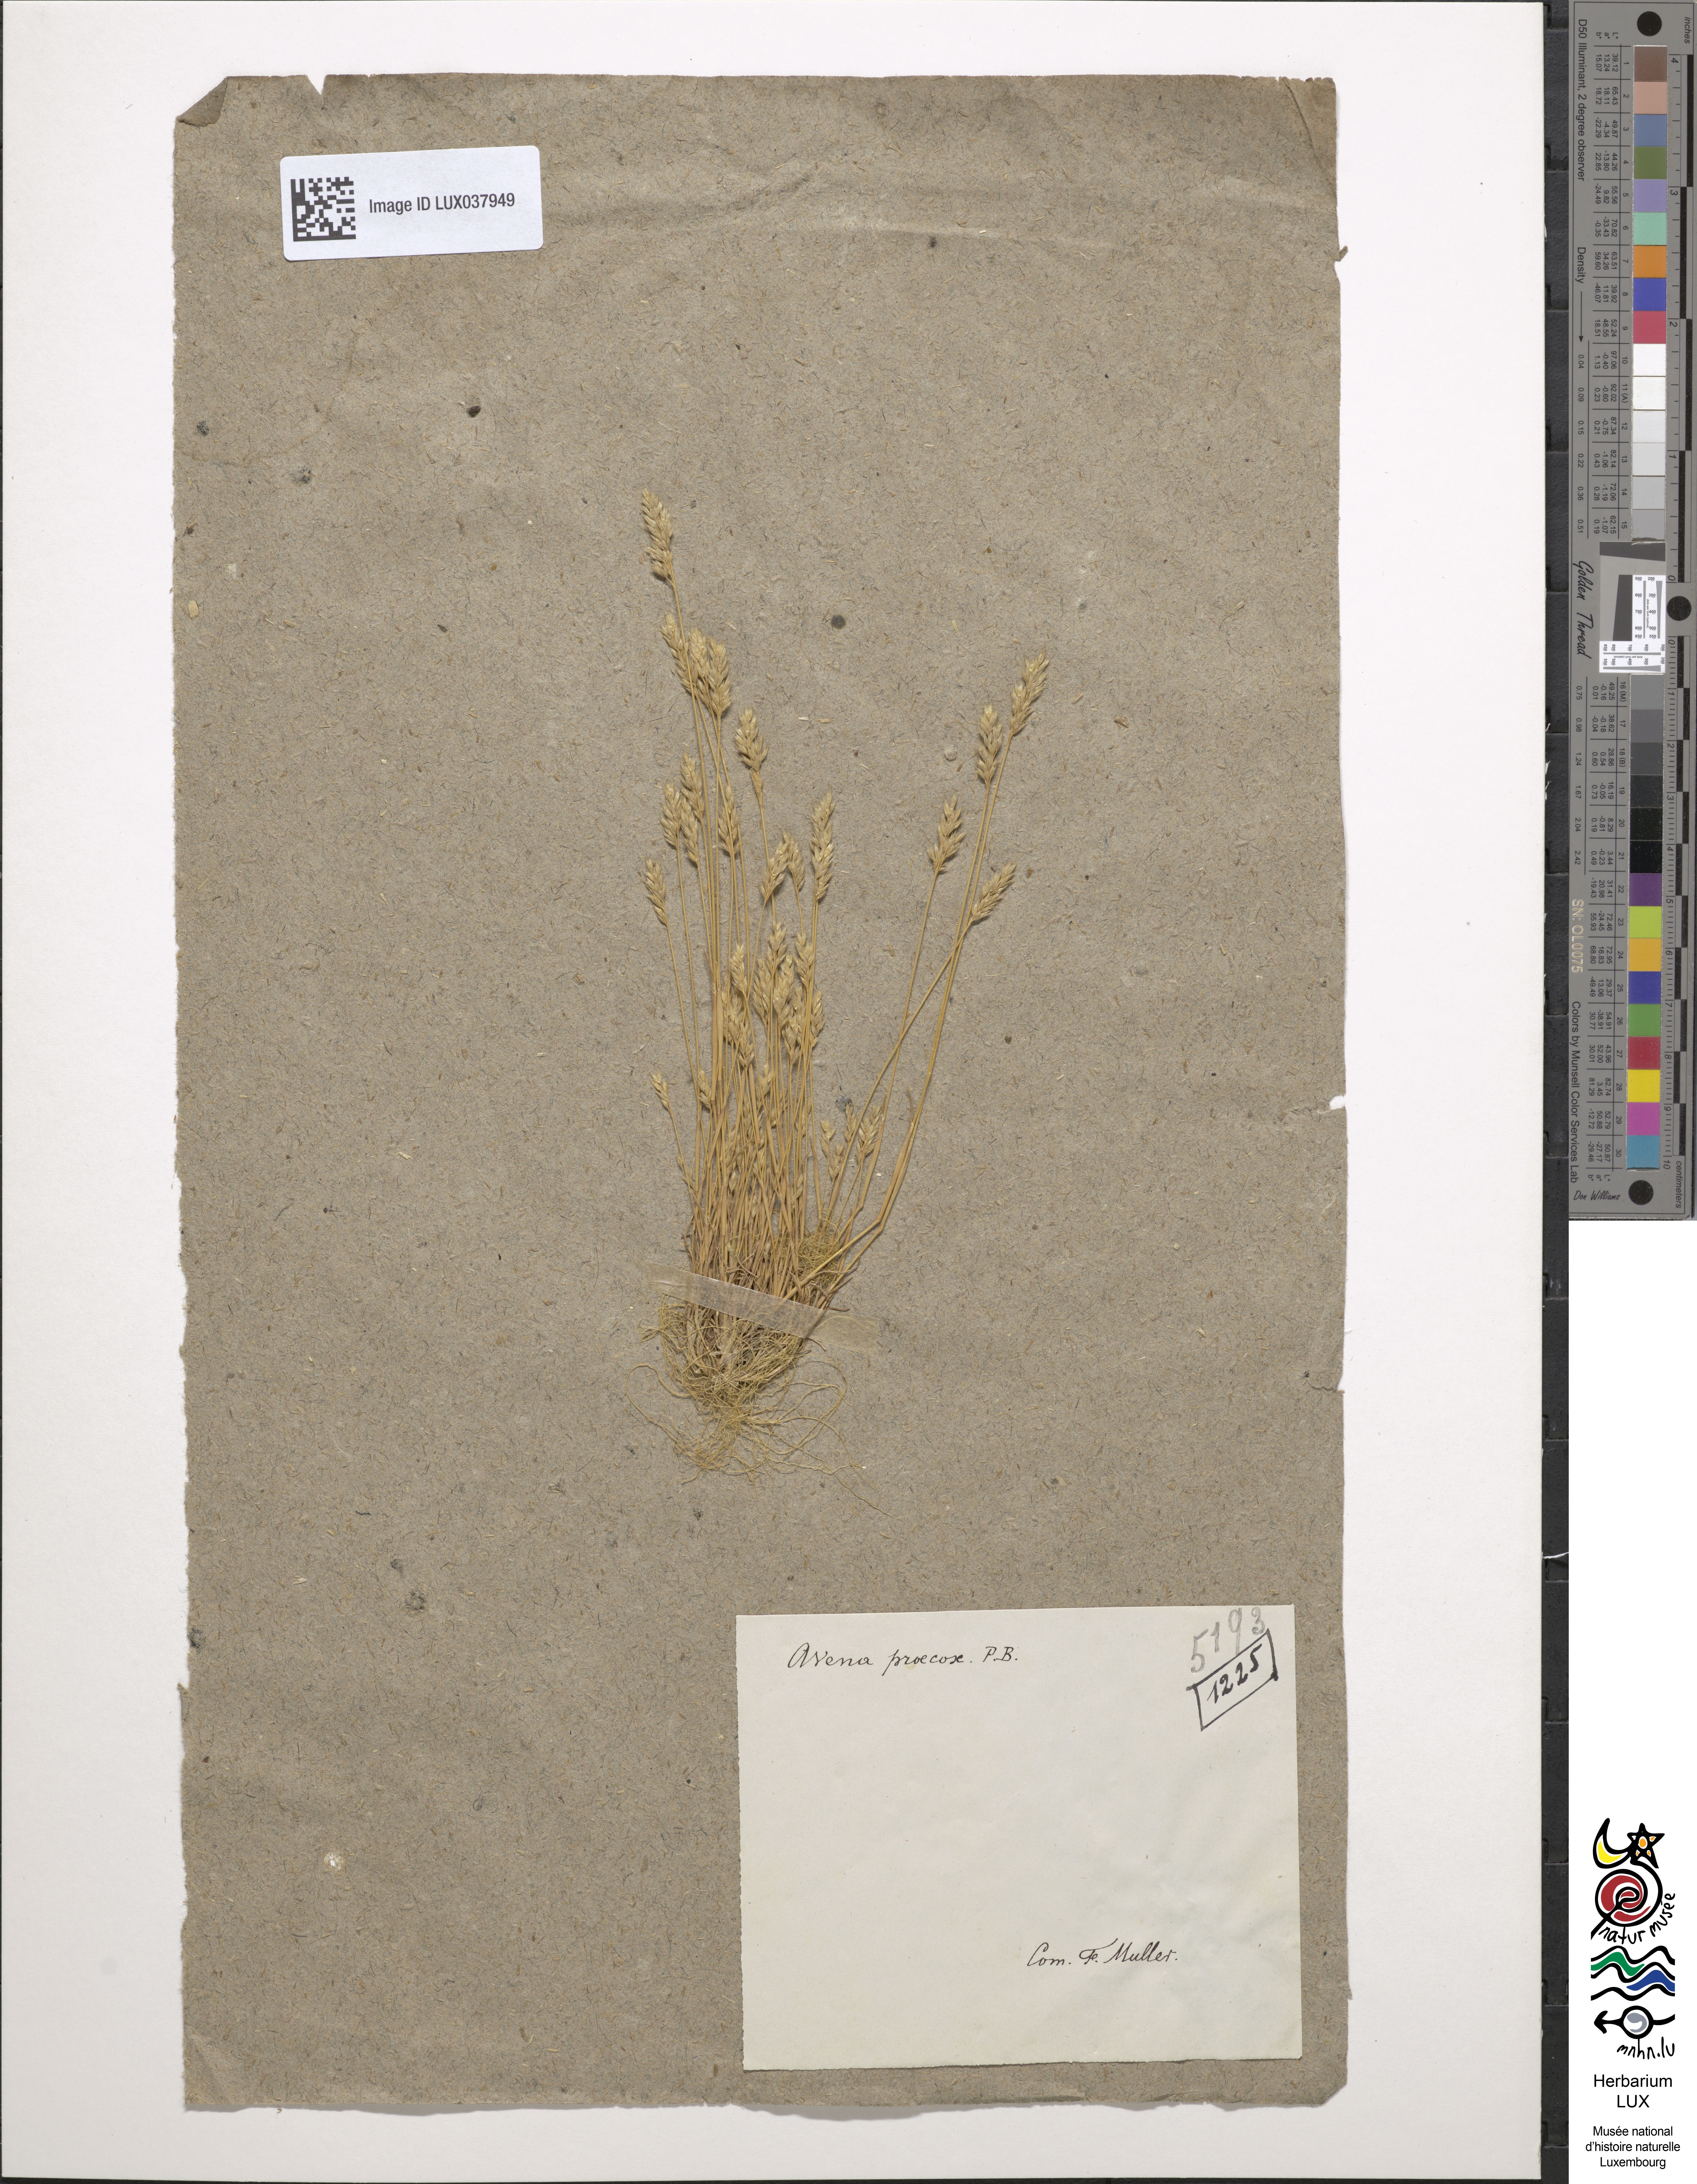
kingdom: Plantae
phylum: Tracheophyta
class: Liliopsida
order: Poales
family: Poaceae
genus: Aira
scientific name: Aira praecox
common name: Early hair-grass
